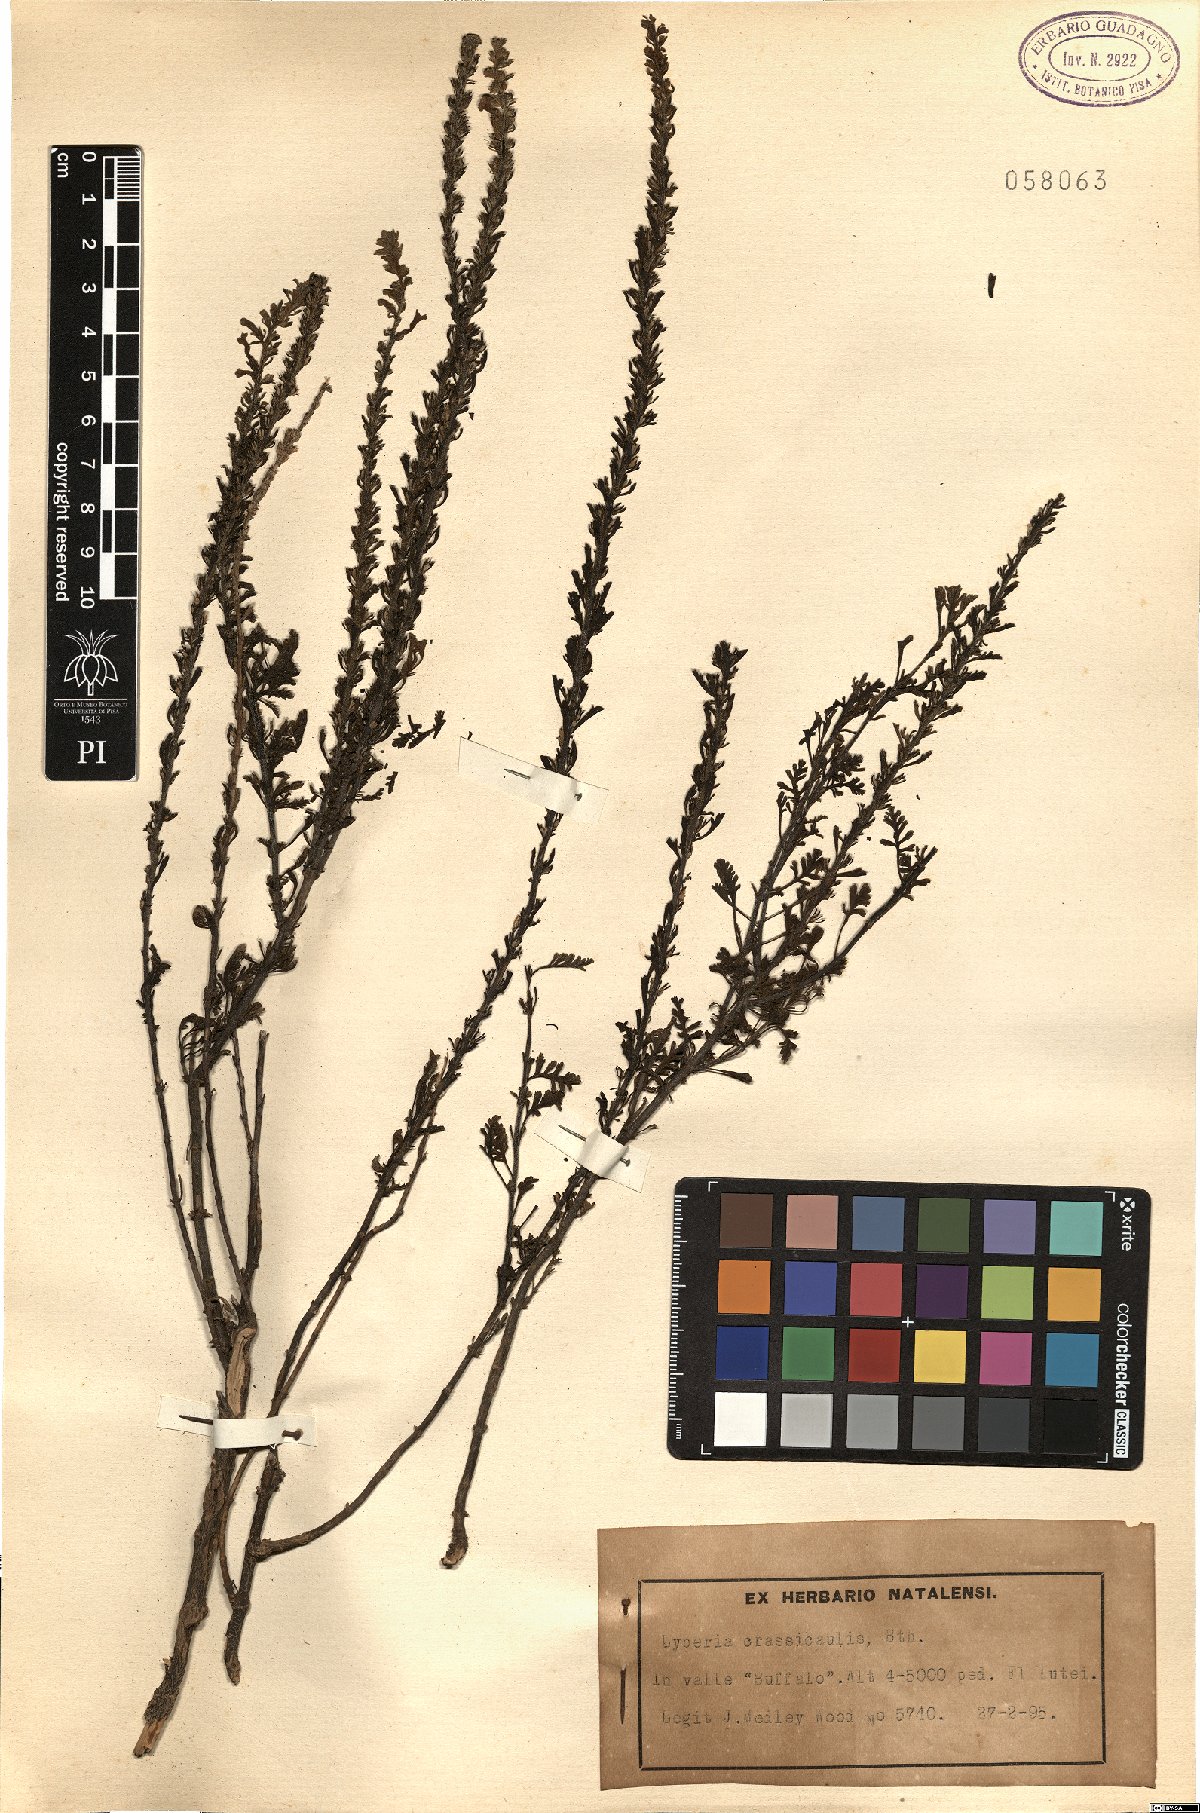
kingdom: Plantae
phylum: Tracheophyta
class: Magnoliopsida
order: Lamiales
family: Scrophulariaceae
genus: Jamesbrittenia
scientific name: Jamesbrittenia crassicaulis
